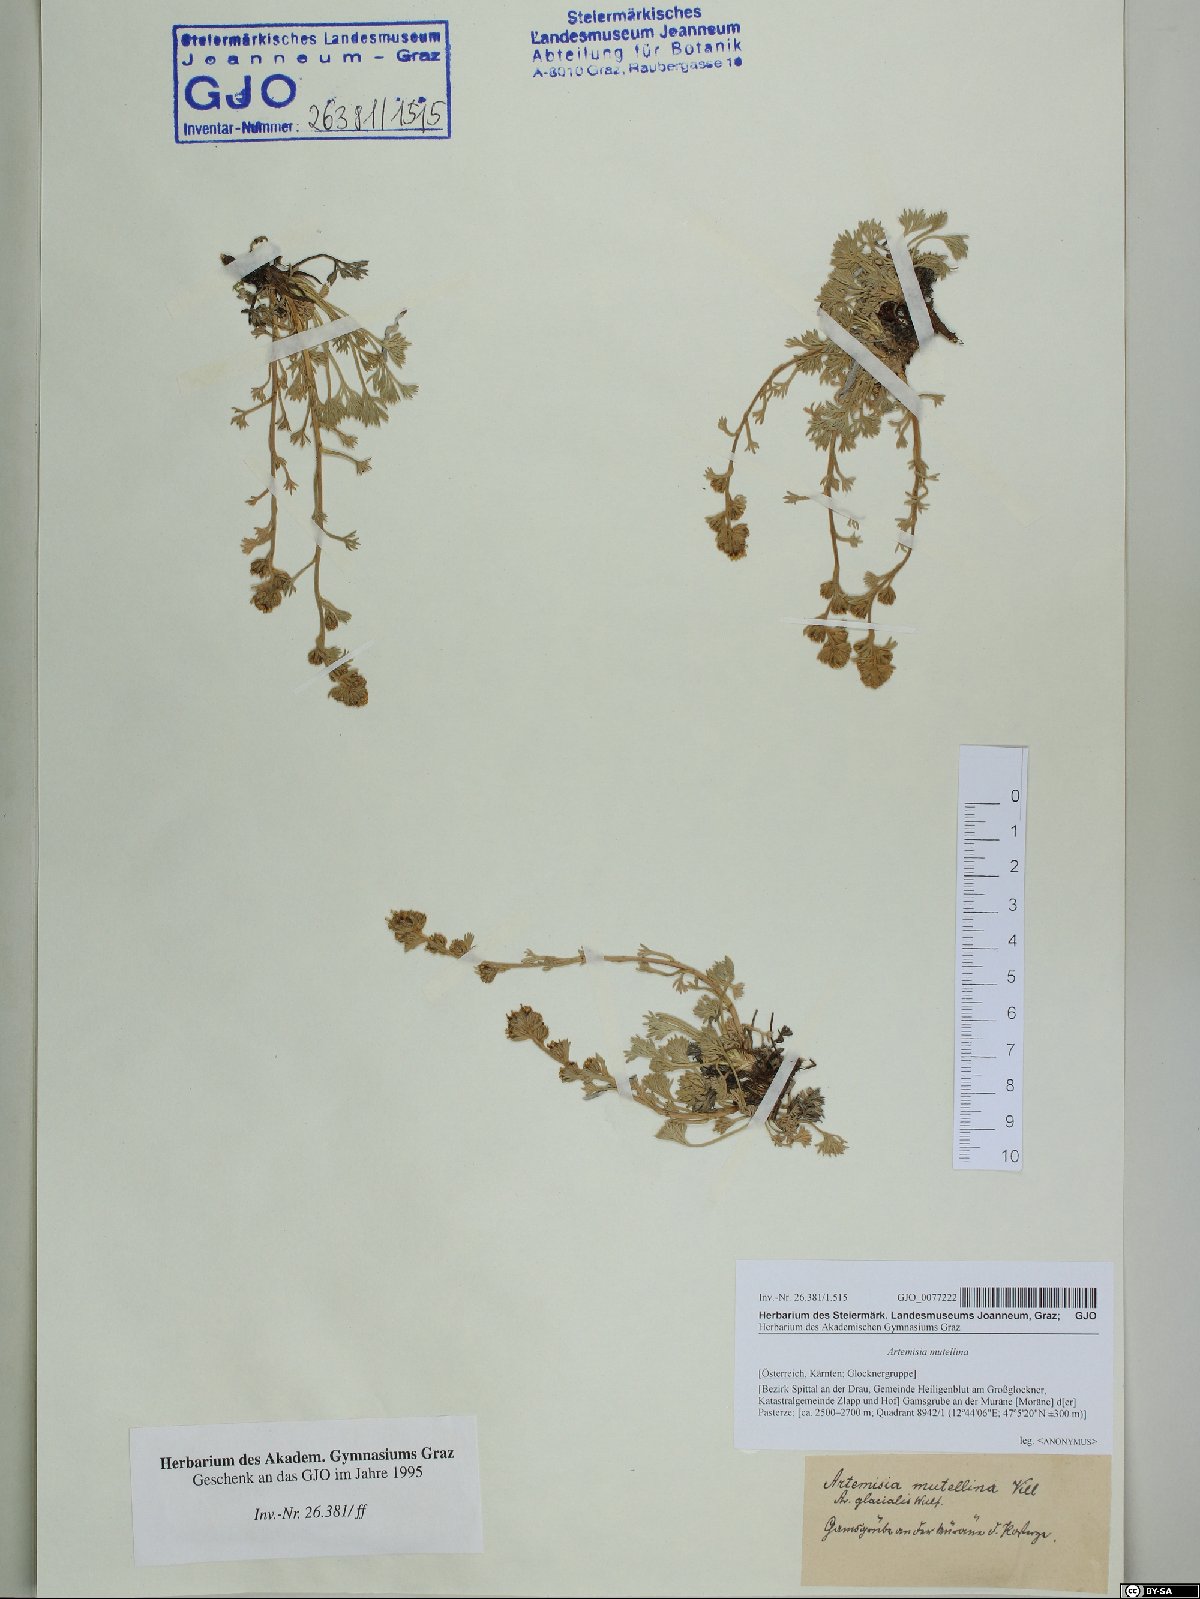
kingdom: Plantae
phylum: Tracheophyta
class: Magnoliopsida
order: Asterales
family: Asteraceae
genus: Artemisia
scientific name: Artemisia mutellina
